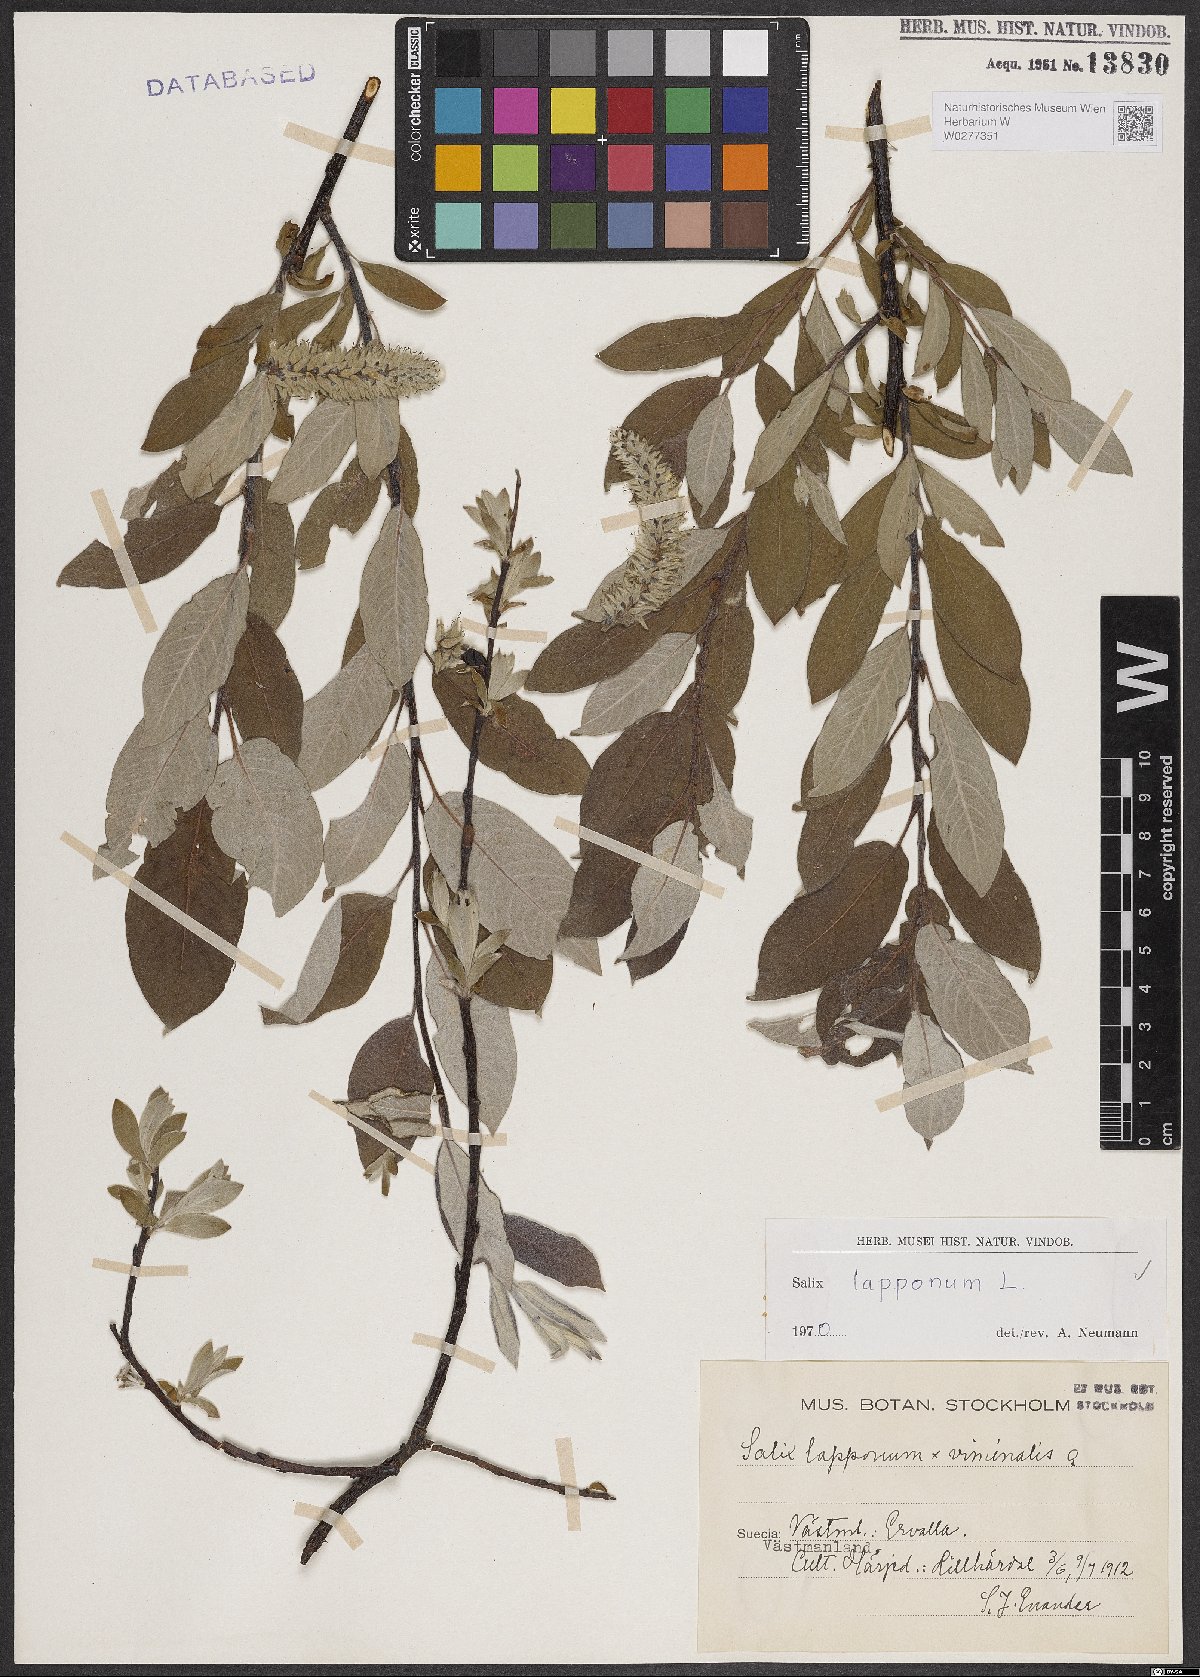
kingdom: Plantae
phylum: Tracheophyta
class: Magnoliopsida
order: Malpighiales
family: Salicaceae
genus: Salix
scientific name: Salix lapponum
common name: Downy willow
